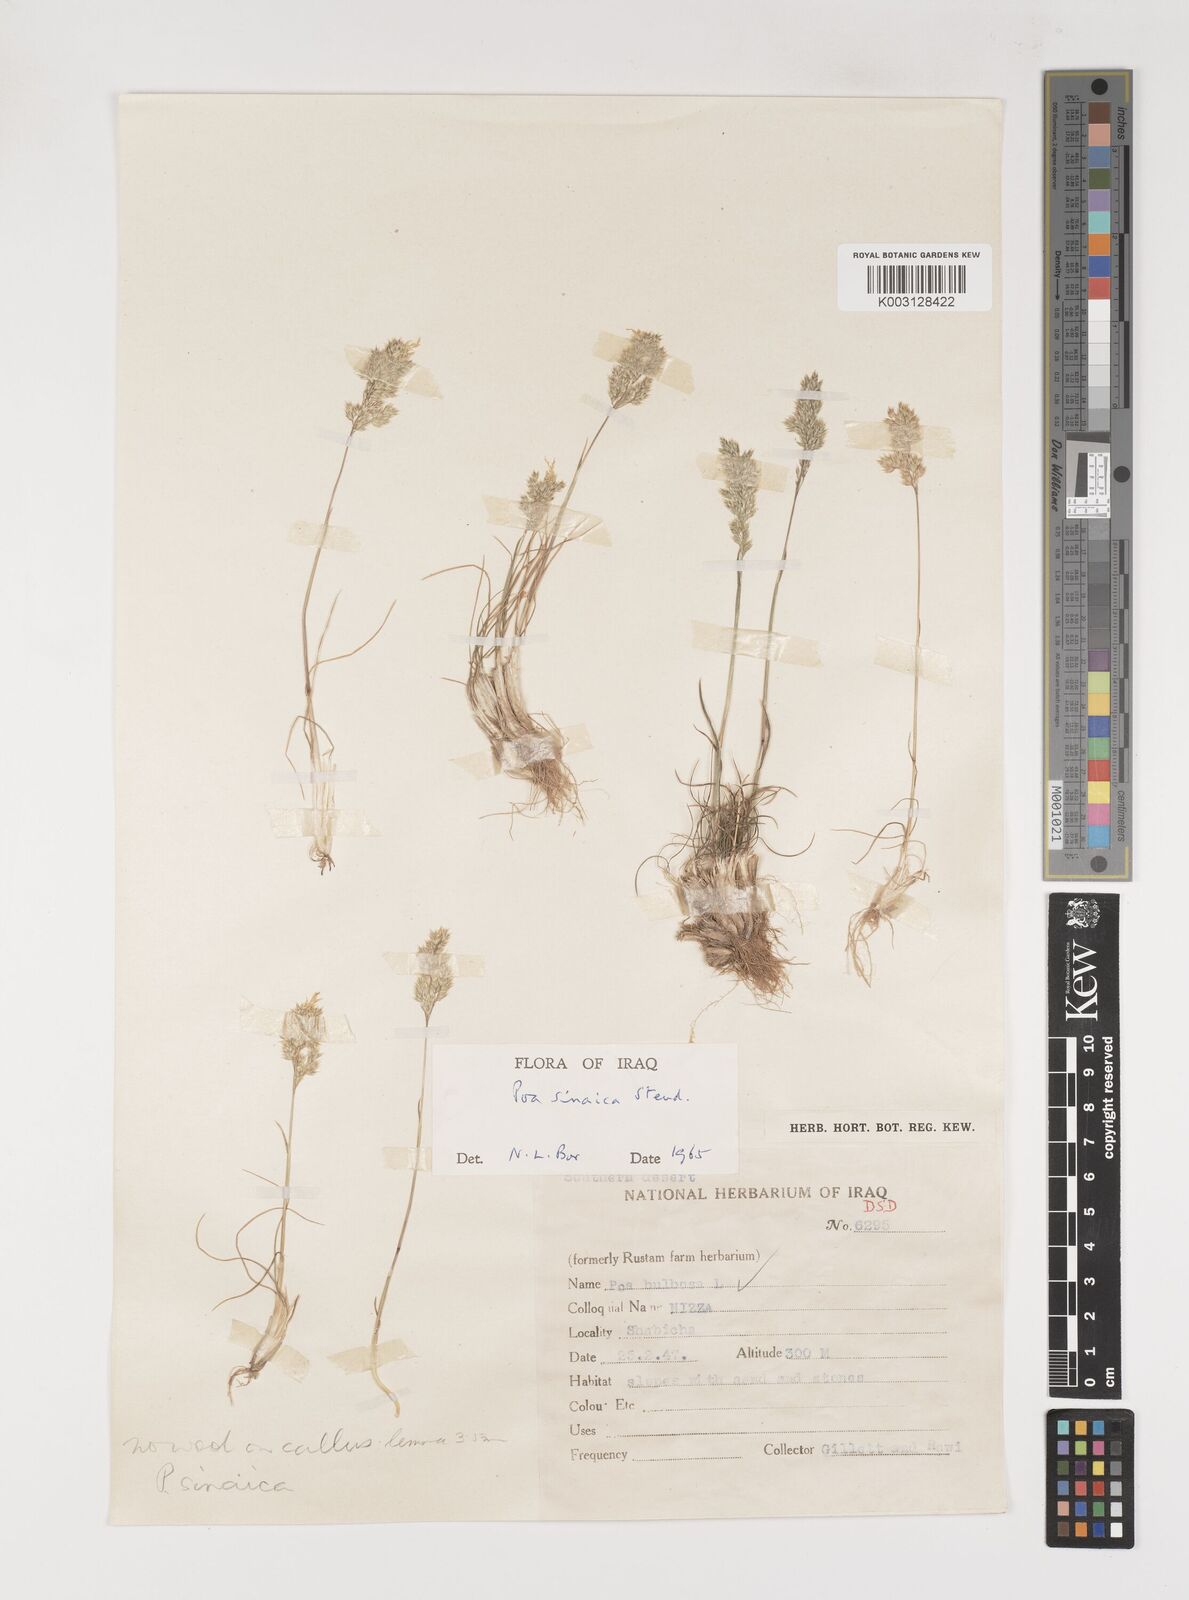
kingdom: Plantae
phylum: Tracheophyta
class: Liliopsida
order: Poales
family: Poaceae
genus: Poa
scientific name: Poa sinaica
